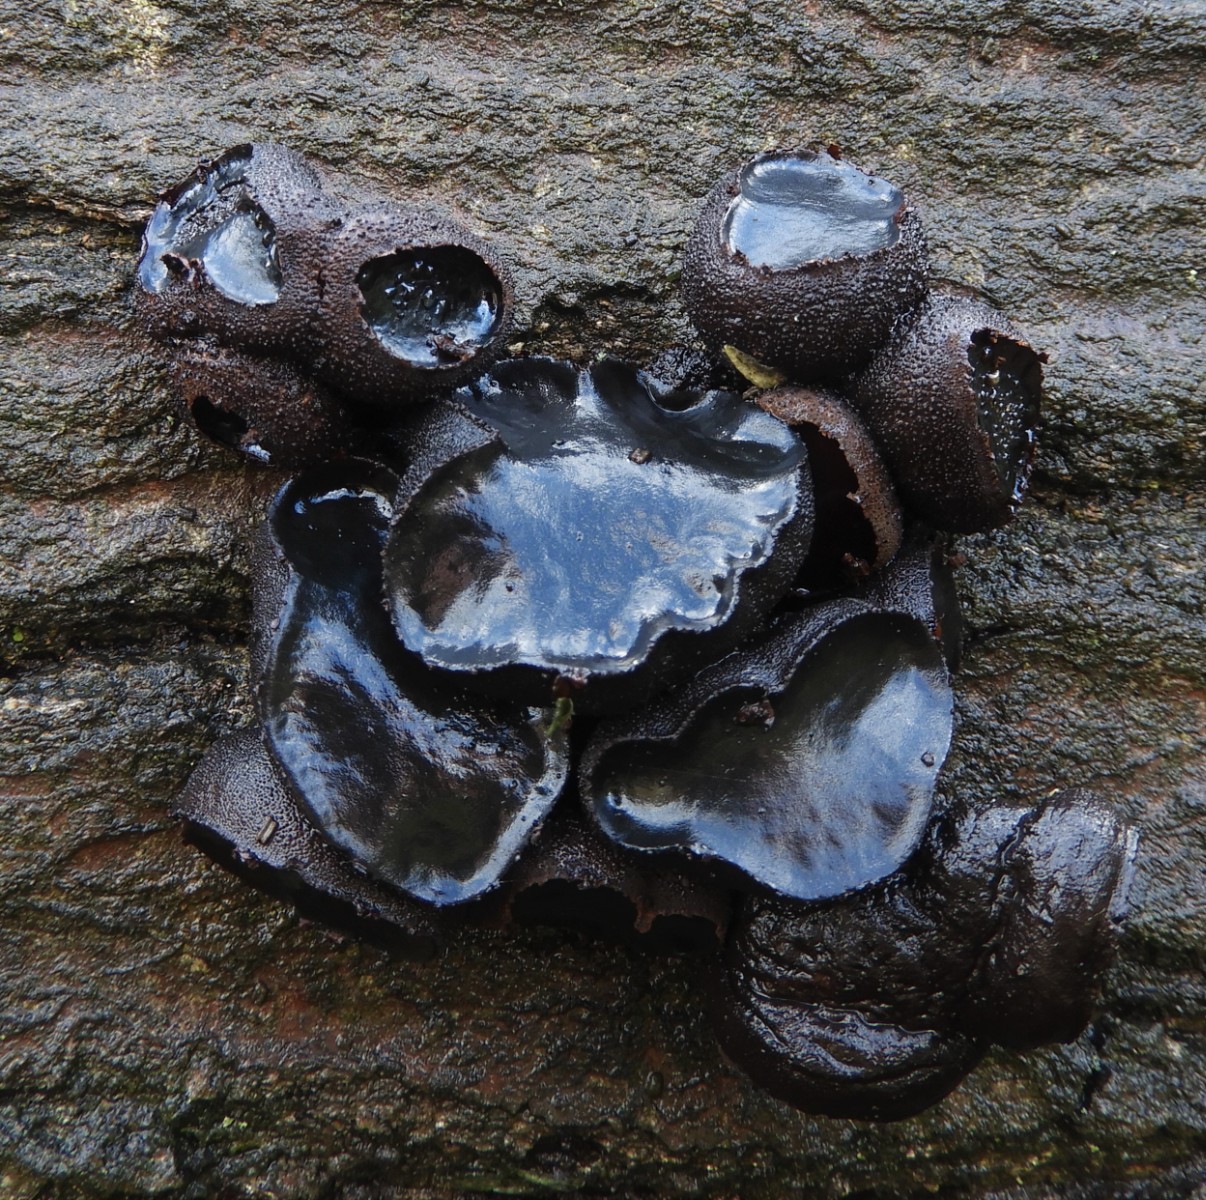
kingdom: Fungi
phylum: Ascomycota
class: Leotiomycetes
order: Phacidiales
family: Phacidiaceae
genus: Bulgaria
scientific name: Bulgaria inquinans
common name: afsmittende topsvamp
